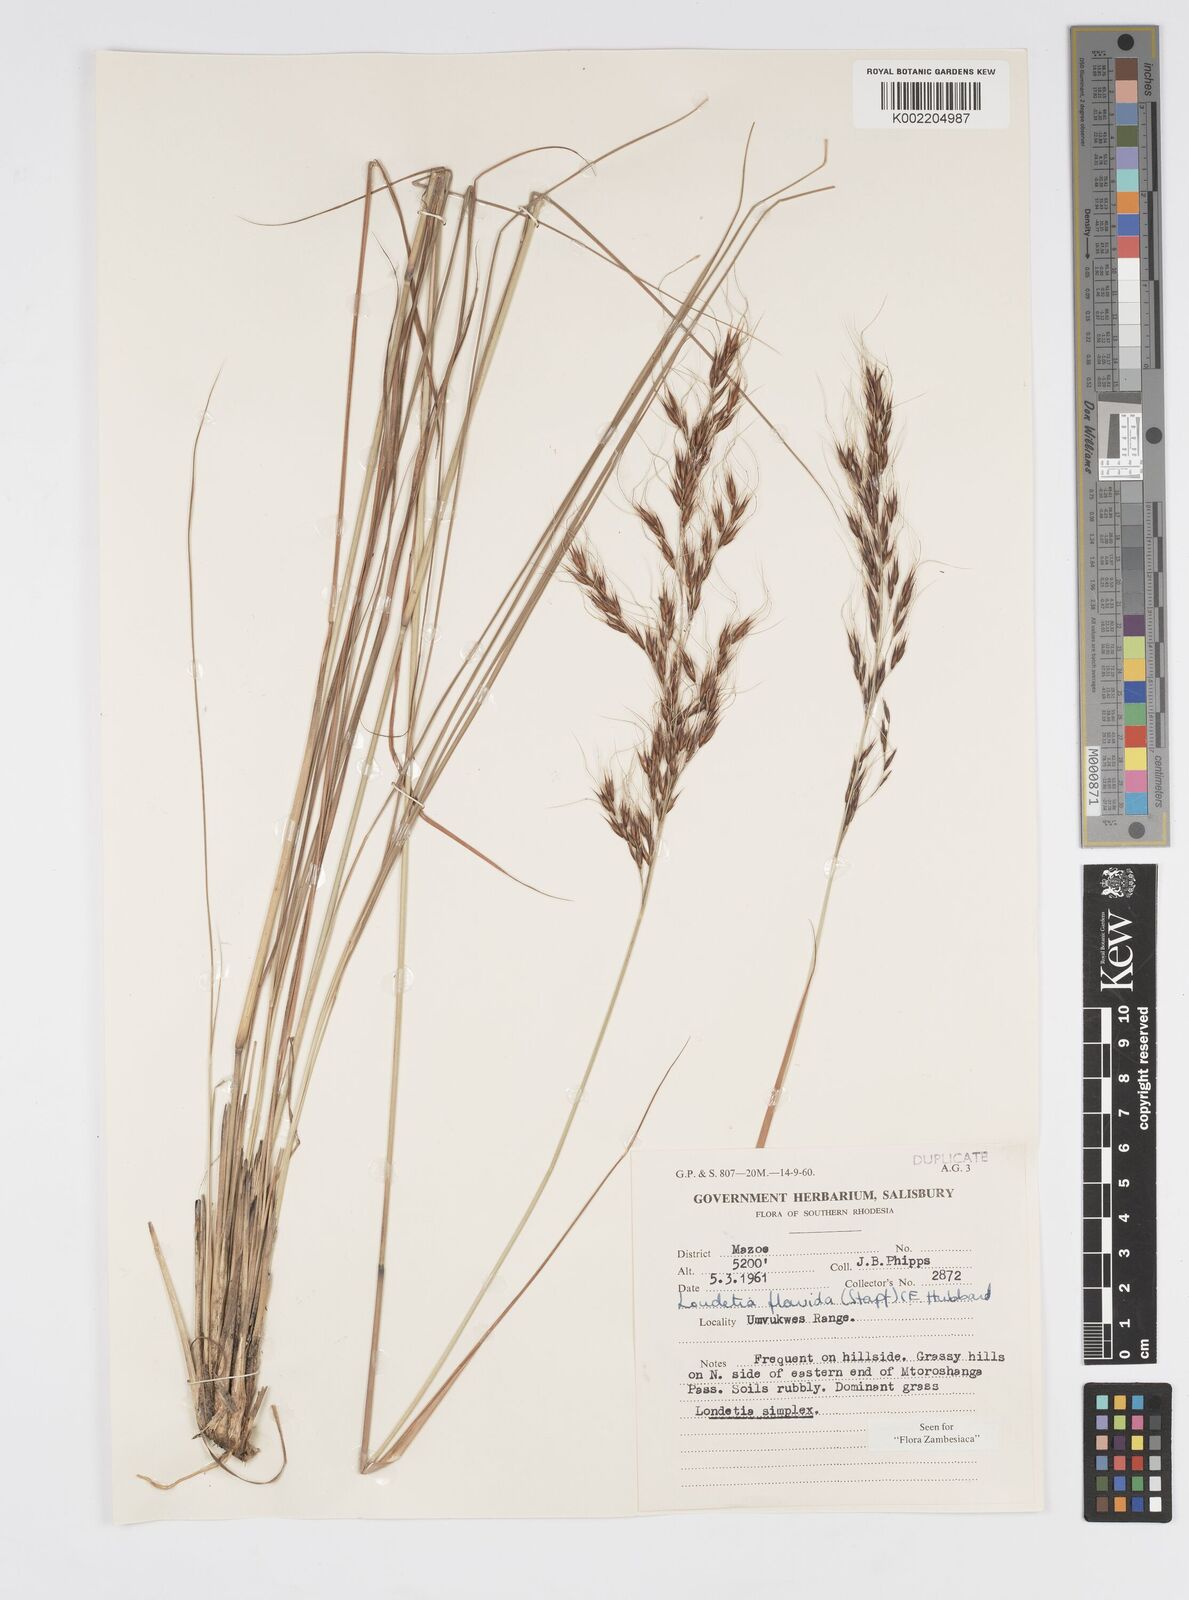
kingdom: Plantae
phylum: Tracheophyta
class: Liliopsida
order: Poales
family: Poaceae
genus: Loudetia
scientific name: Loudetia flavida
